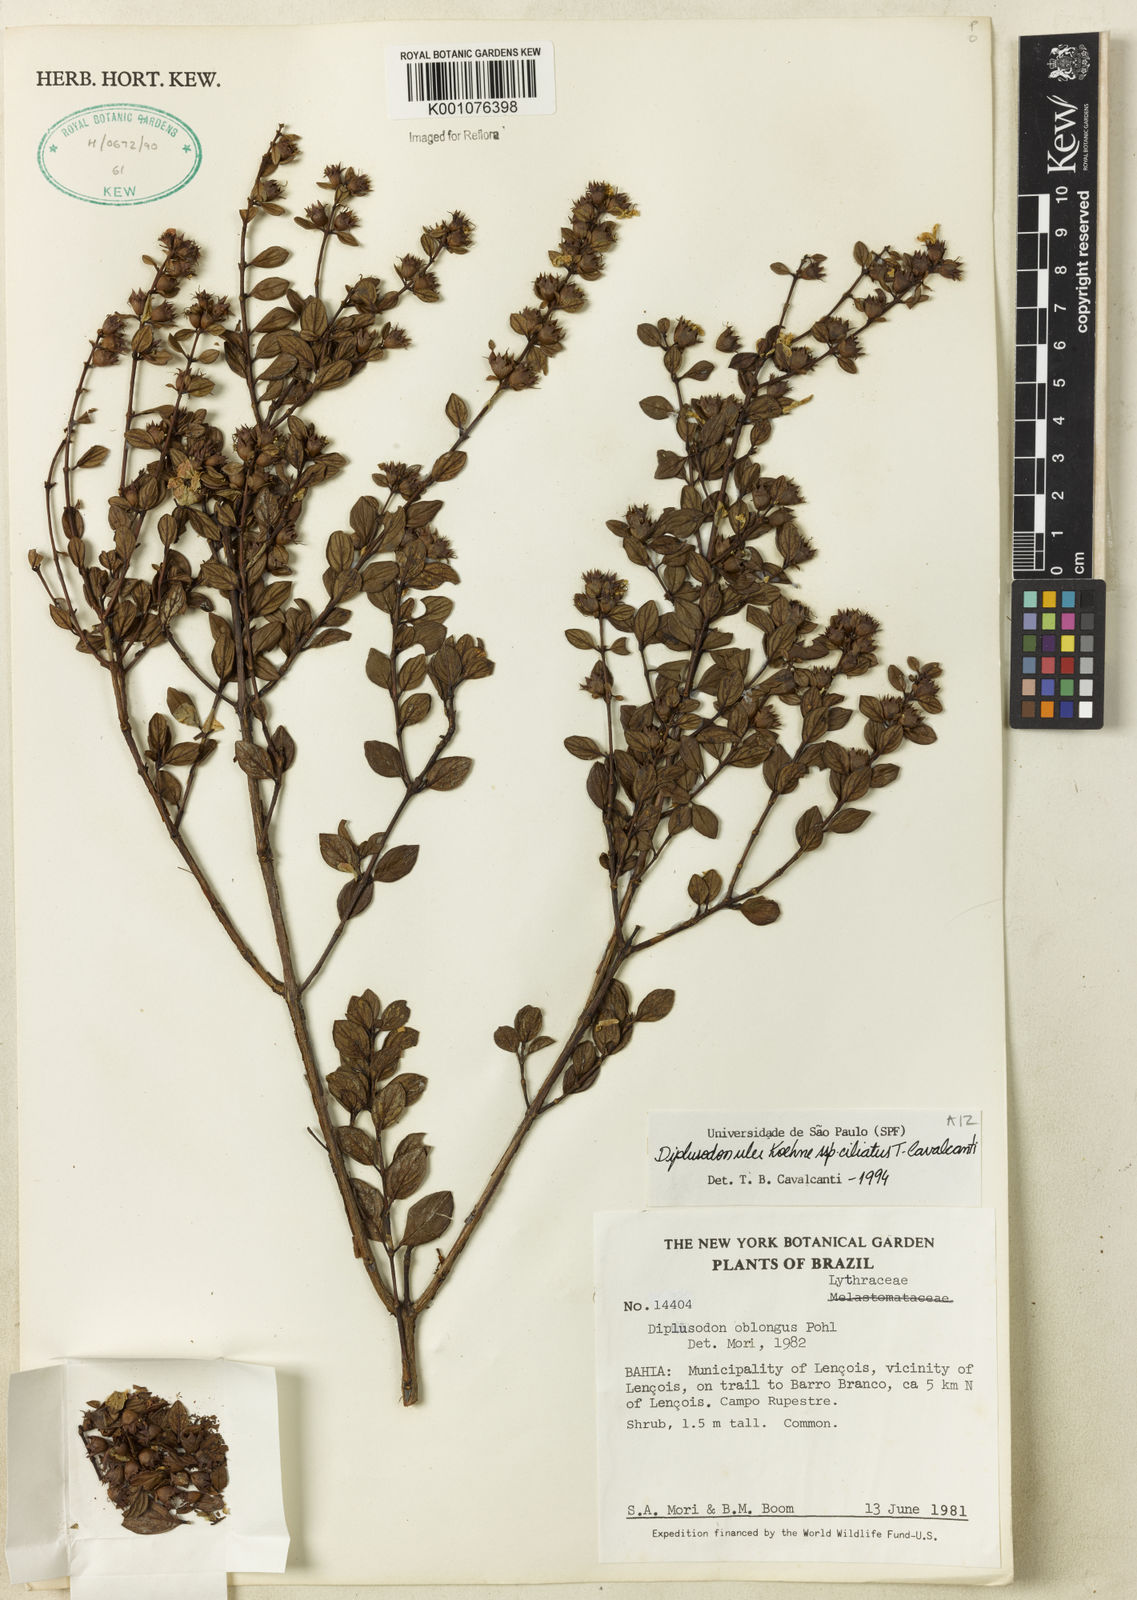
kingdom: Plantae
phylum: Tracheophyta
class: Magnoliopsida
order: Myrtales
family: Lythraceae
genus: Diplusodon
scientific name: Diplusodon ciliatus
